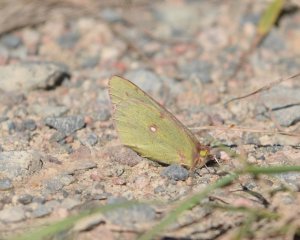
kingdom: Animalia
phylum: Arthropoda
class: Insecta
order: Lepidoptera
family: Pieridae
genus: Colias
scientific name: Colias philodice
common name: Clouded Sulphur
